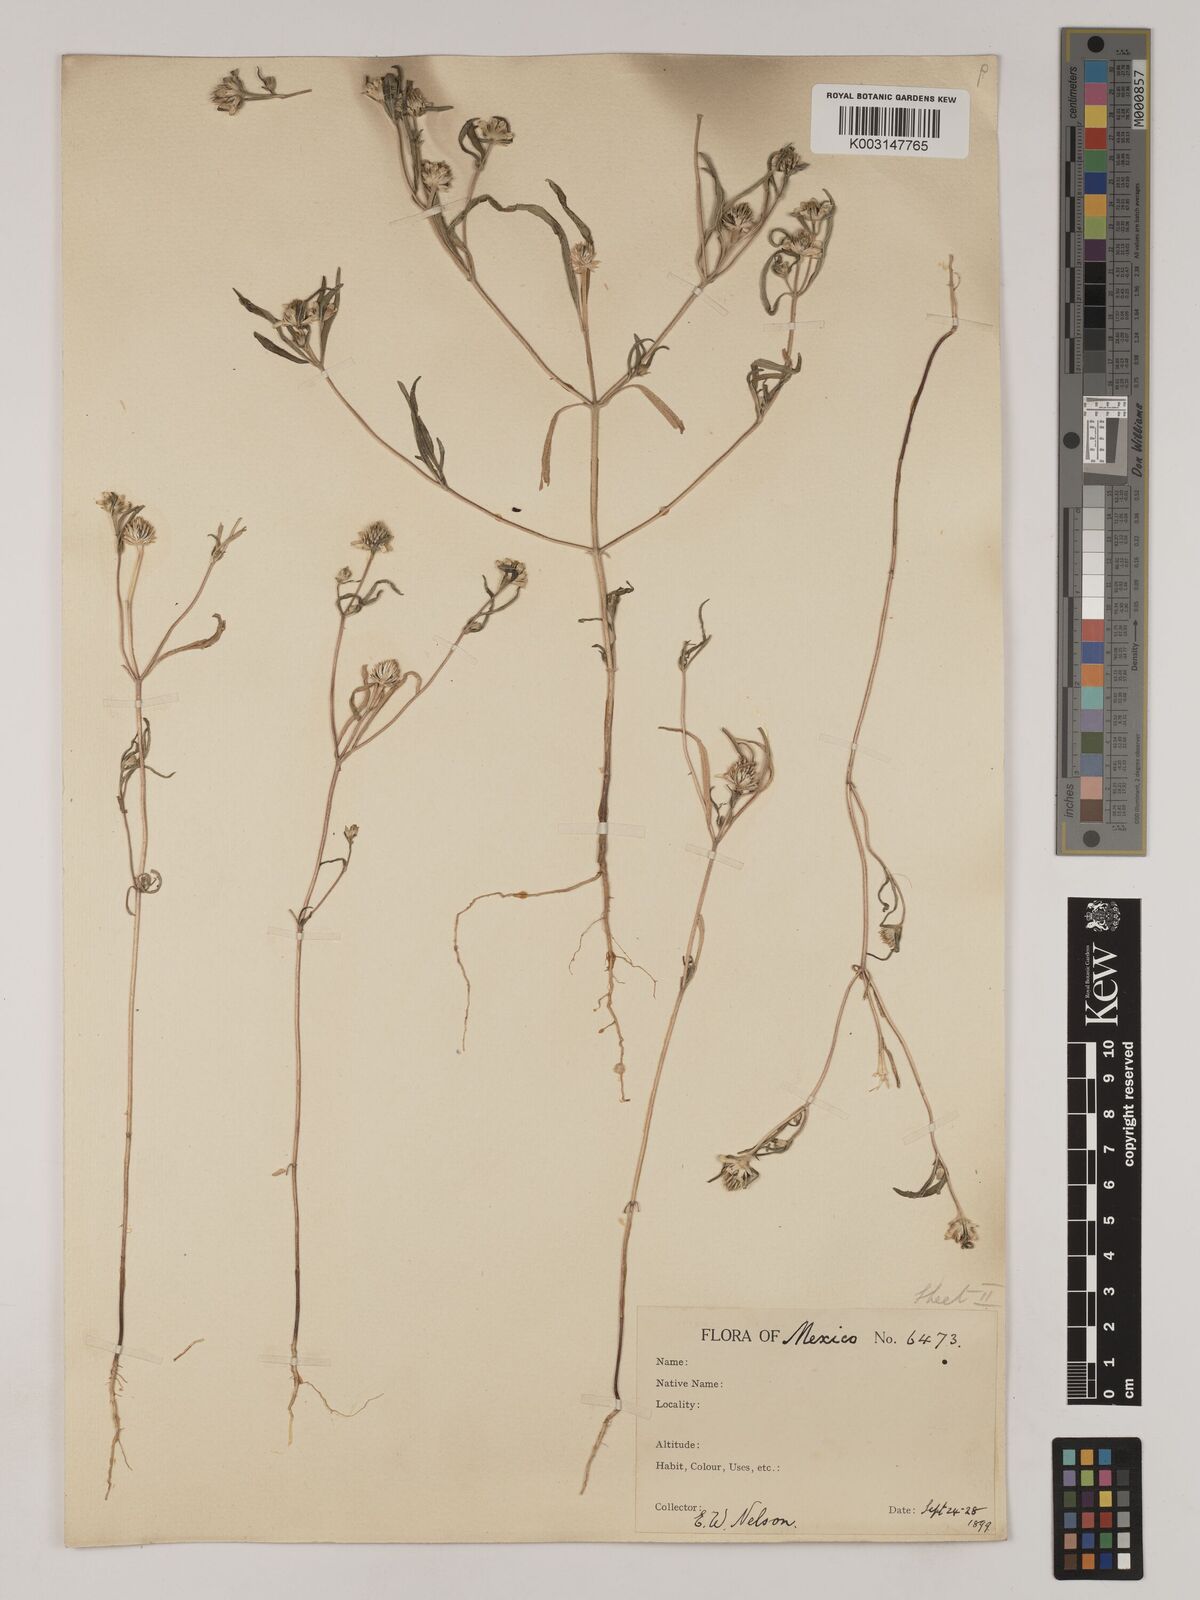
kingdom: Plantae
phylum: Tracheophyta
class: Magnoliopsida
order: Asterales
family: Asteraceae
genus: Sanvitalia
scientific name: Sanvitalia abertii
